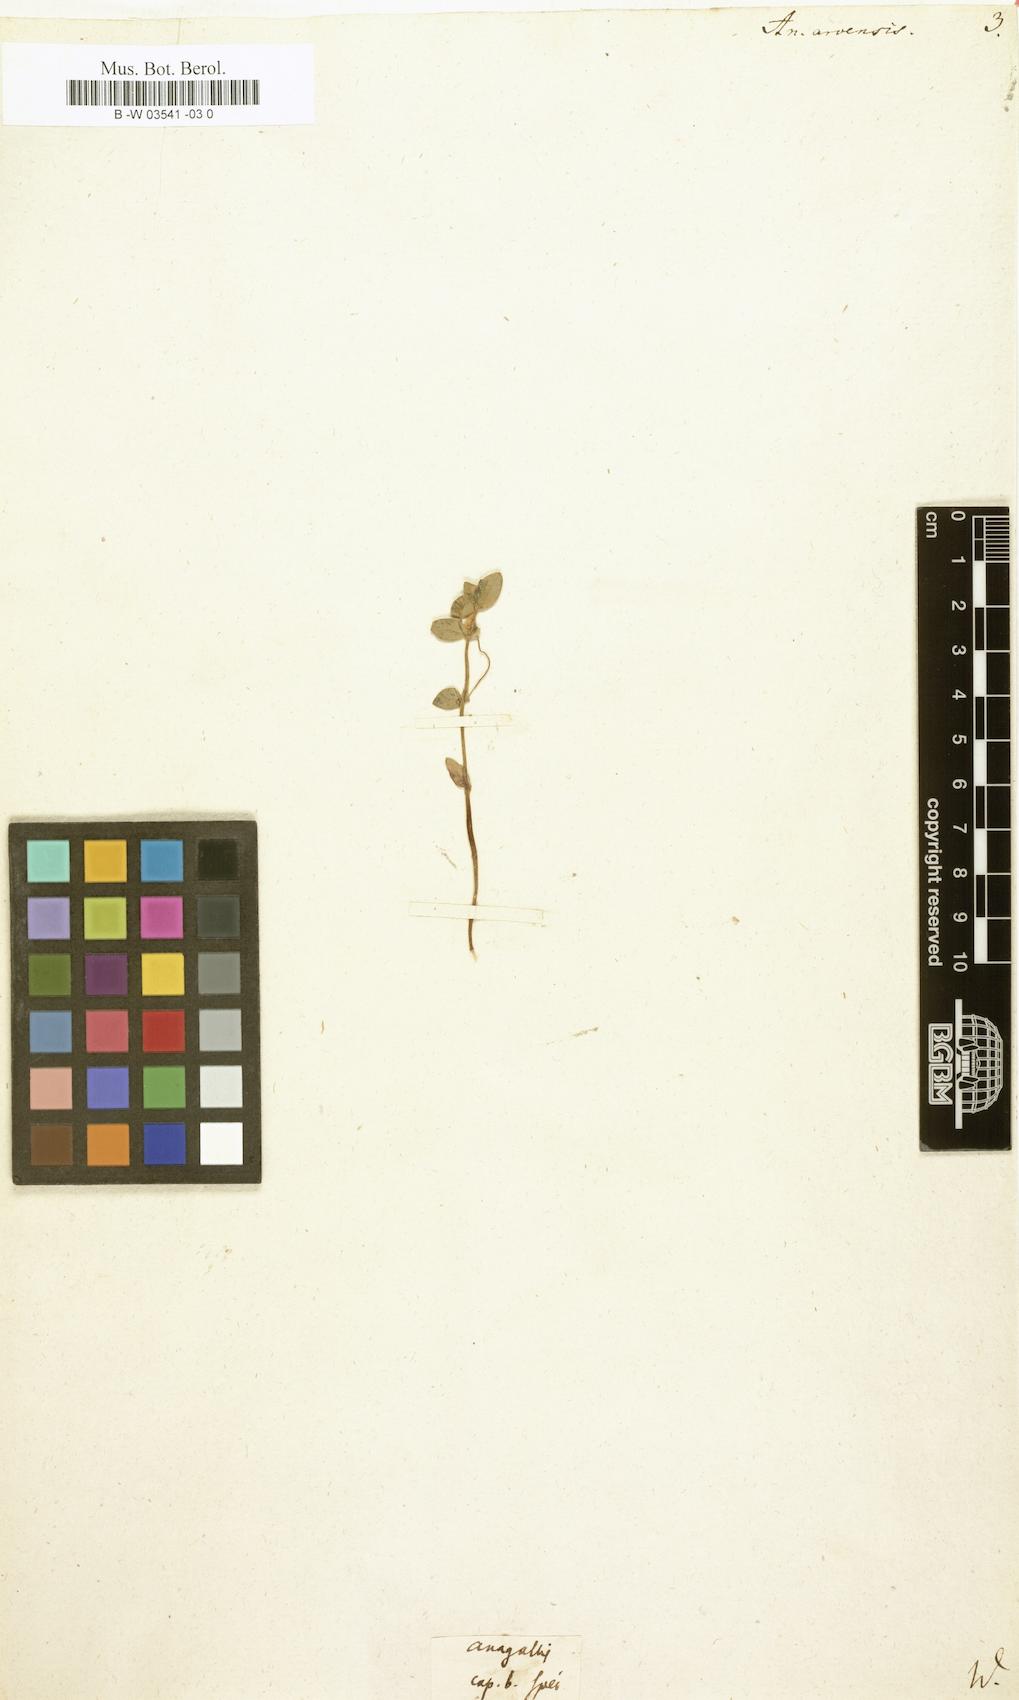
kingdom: Plantae
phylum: Tracheophyta
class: Magnoliopsida
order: Ericales
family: Primulaceae
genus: Lysimachia
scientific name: Lysimachia arvensis
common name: Scarlet pimpernel
